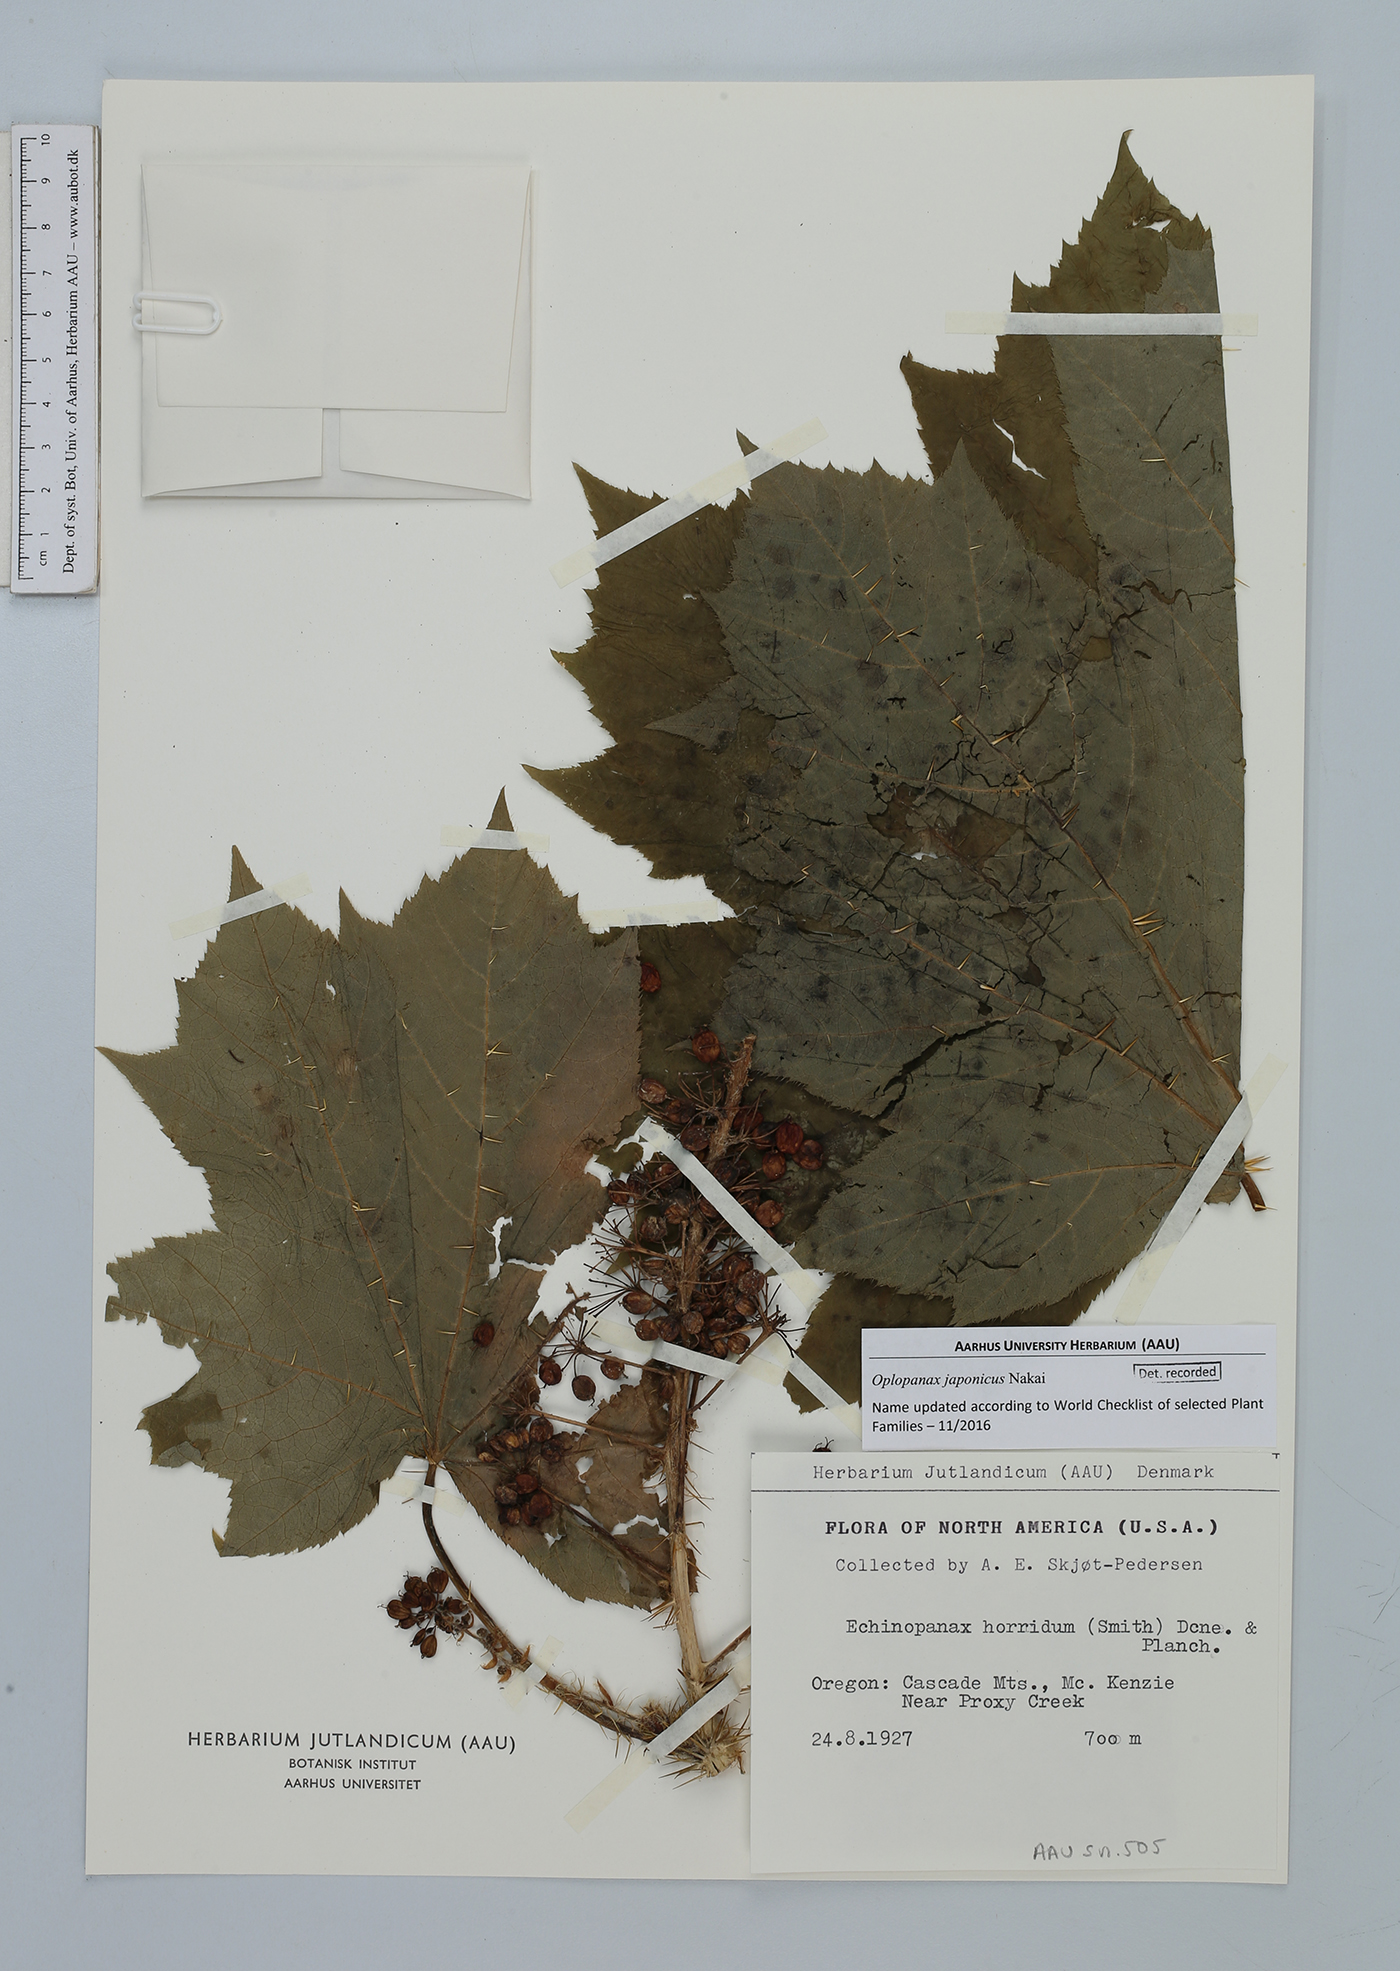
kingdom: Plantae
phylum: Tracheophyta
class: Magnoliopsida
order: Apiales
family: Araliaceae
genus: Oplopanax
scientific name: Oplopanax japonicus
